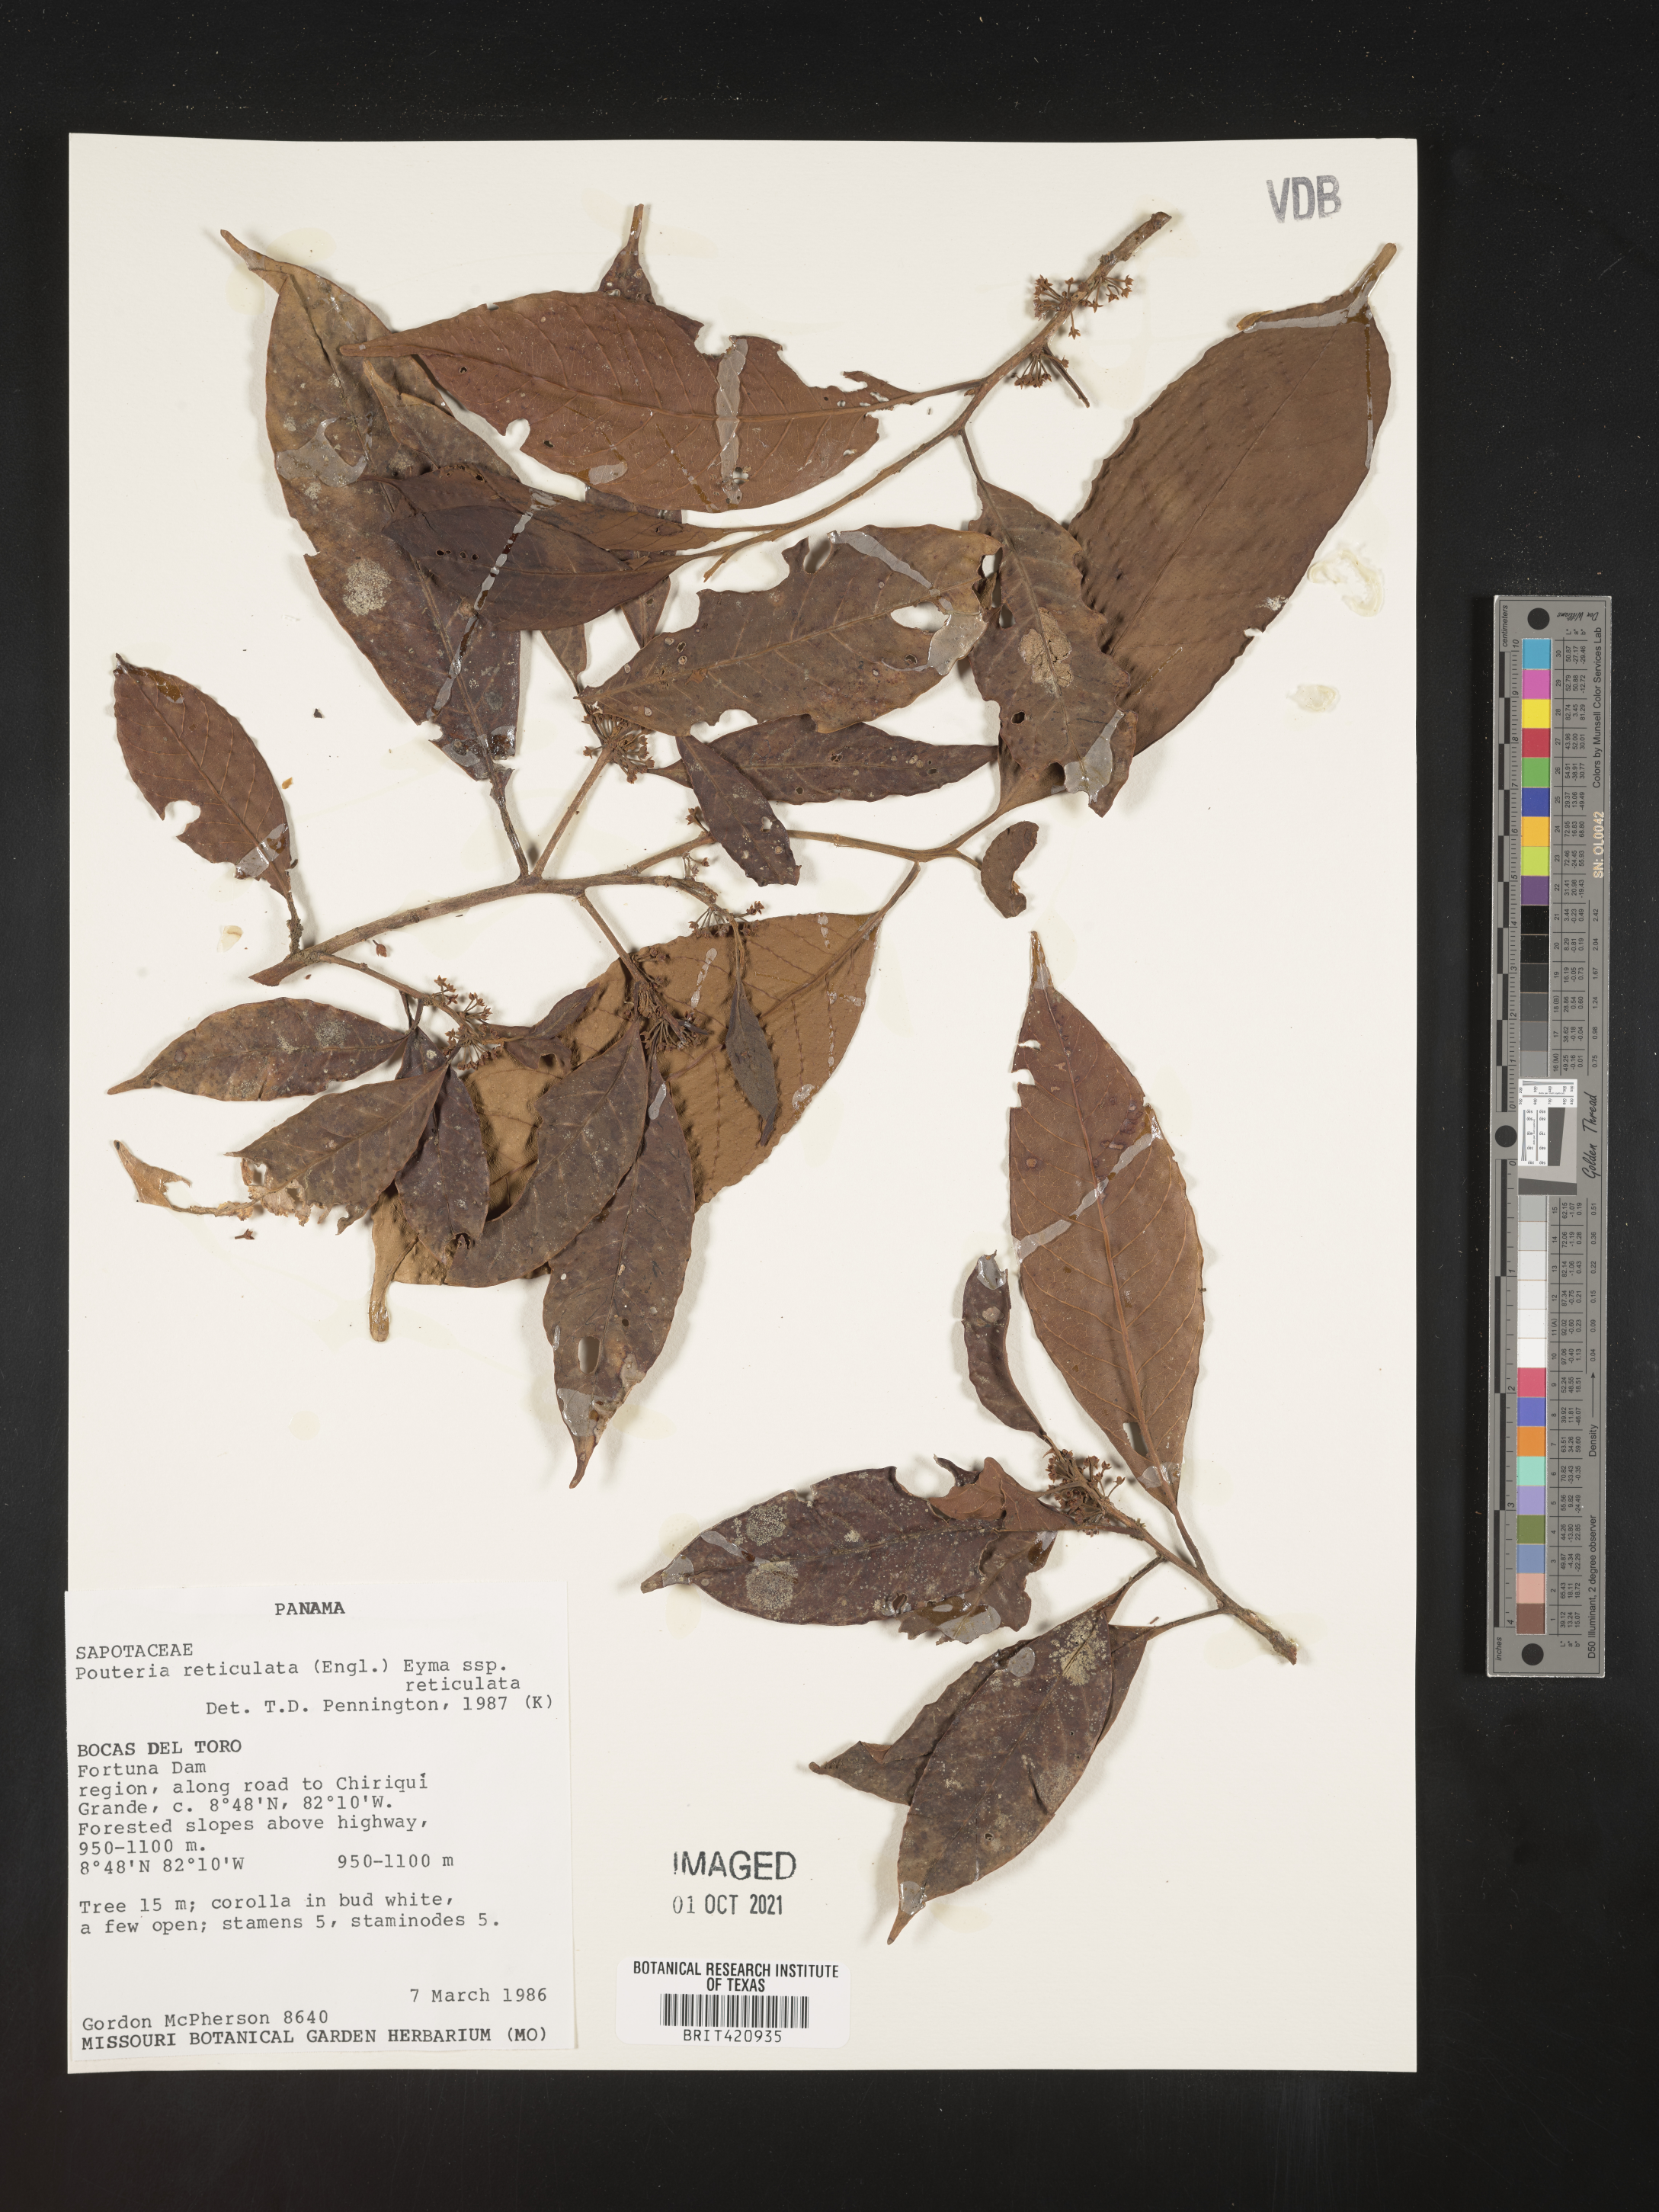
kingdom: Plantae
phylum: Tracheophyta
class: Magnoliopsida
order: Ericales
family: Sapotaceae
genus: Pouteria
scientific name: Pouteria
